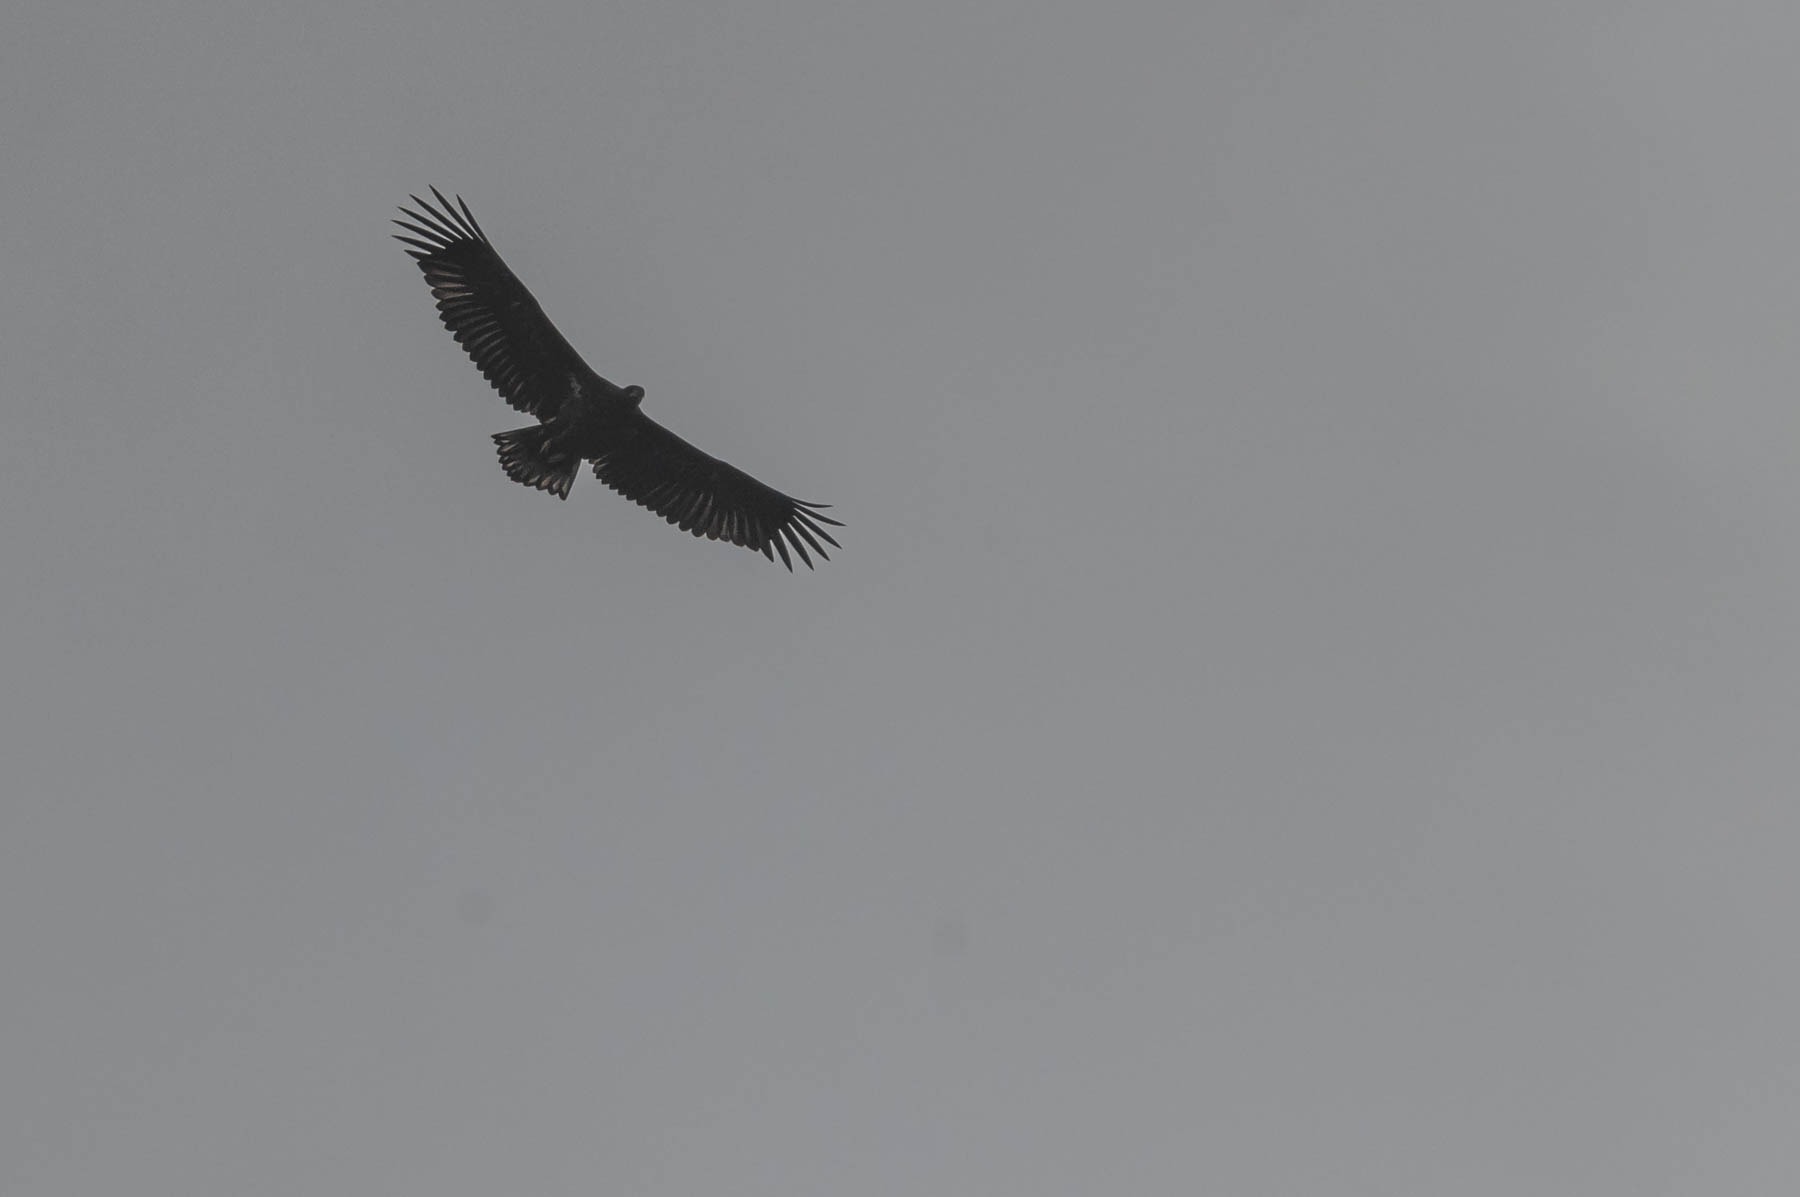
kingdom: Animalia
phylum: Chordata
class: Aves
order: Accipitriformes
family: Accipitridae
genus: Haliaeetus
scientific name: Haliaeetus albicilla
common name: Havørn
